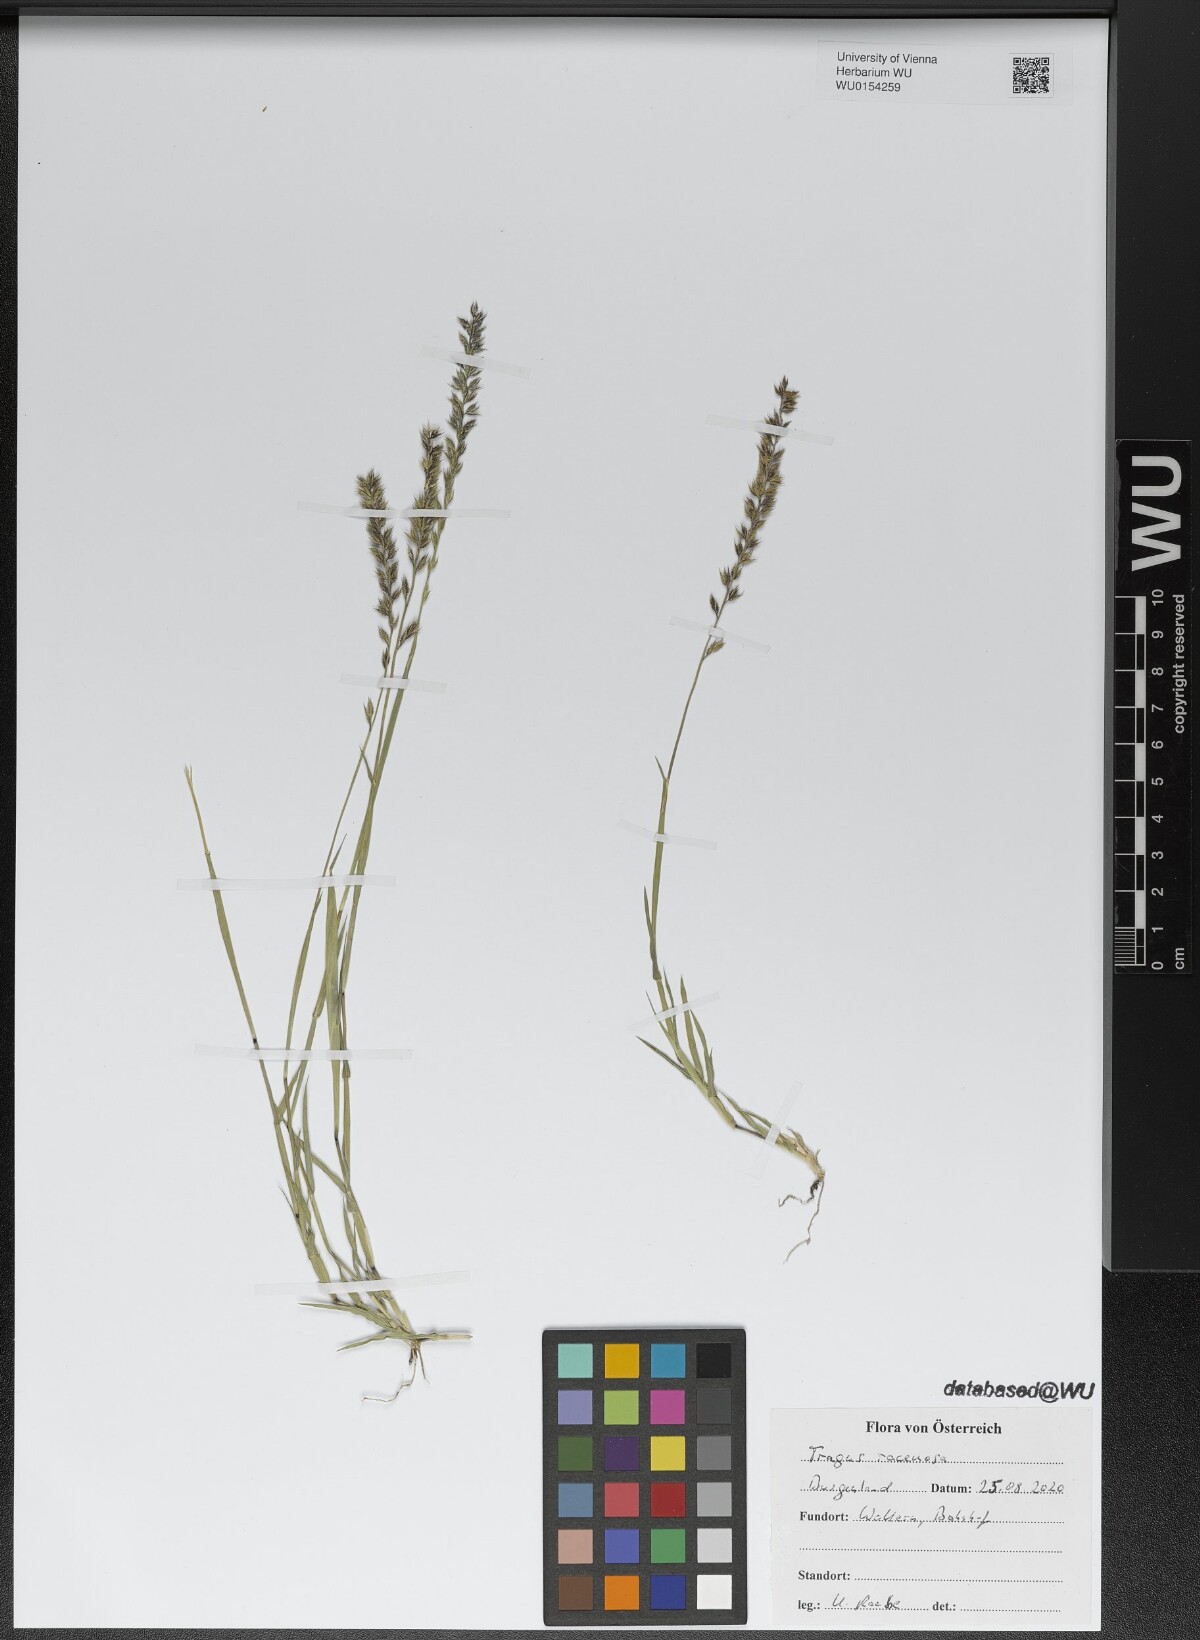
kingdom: Plantae
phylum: Tracheophyta
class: Liliopsida
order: Poales
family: Poaceae
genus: Tragus
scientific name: Tragus racemosus
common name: European bur-grass
